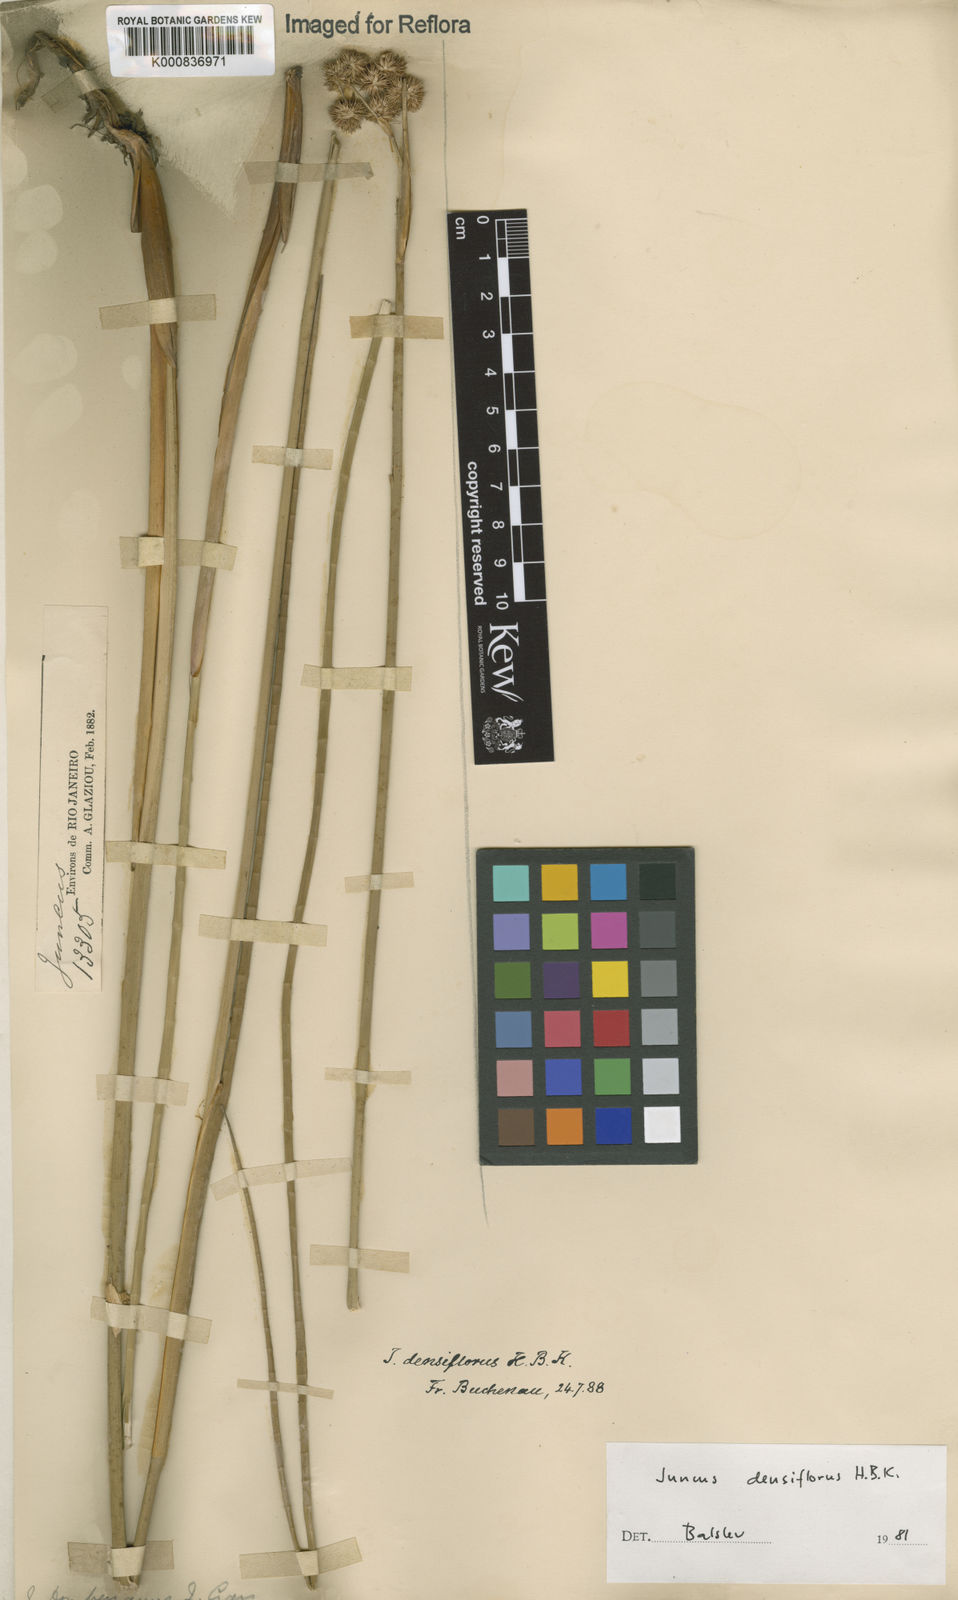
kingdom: Plantae
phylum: Tracheophyta
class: Liliopsida
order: Poales
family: Juncaceae
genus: Juncus
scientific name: Juncus densiflorus
